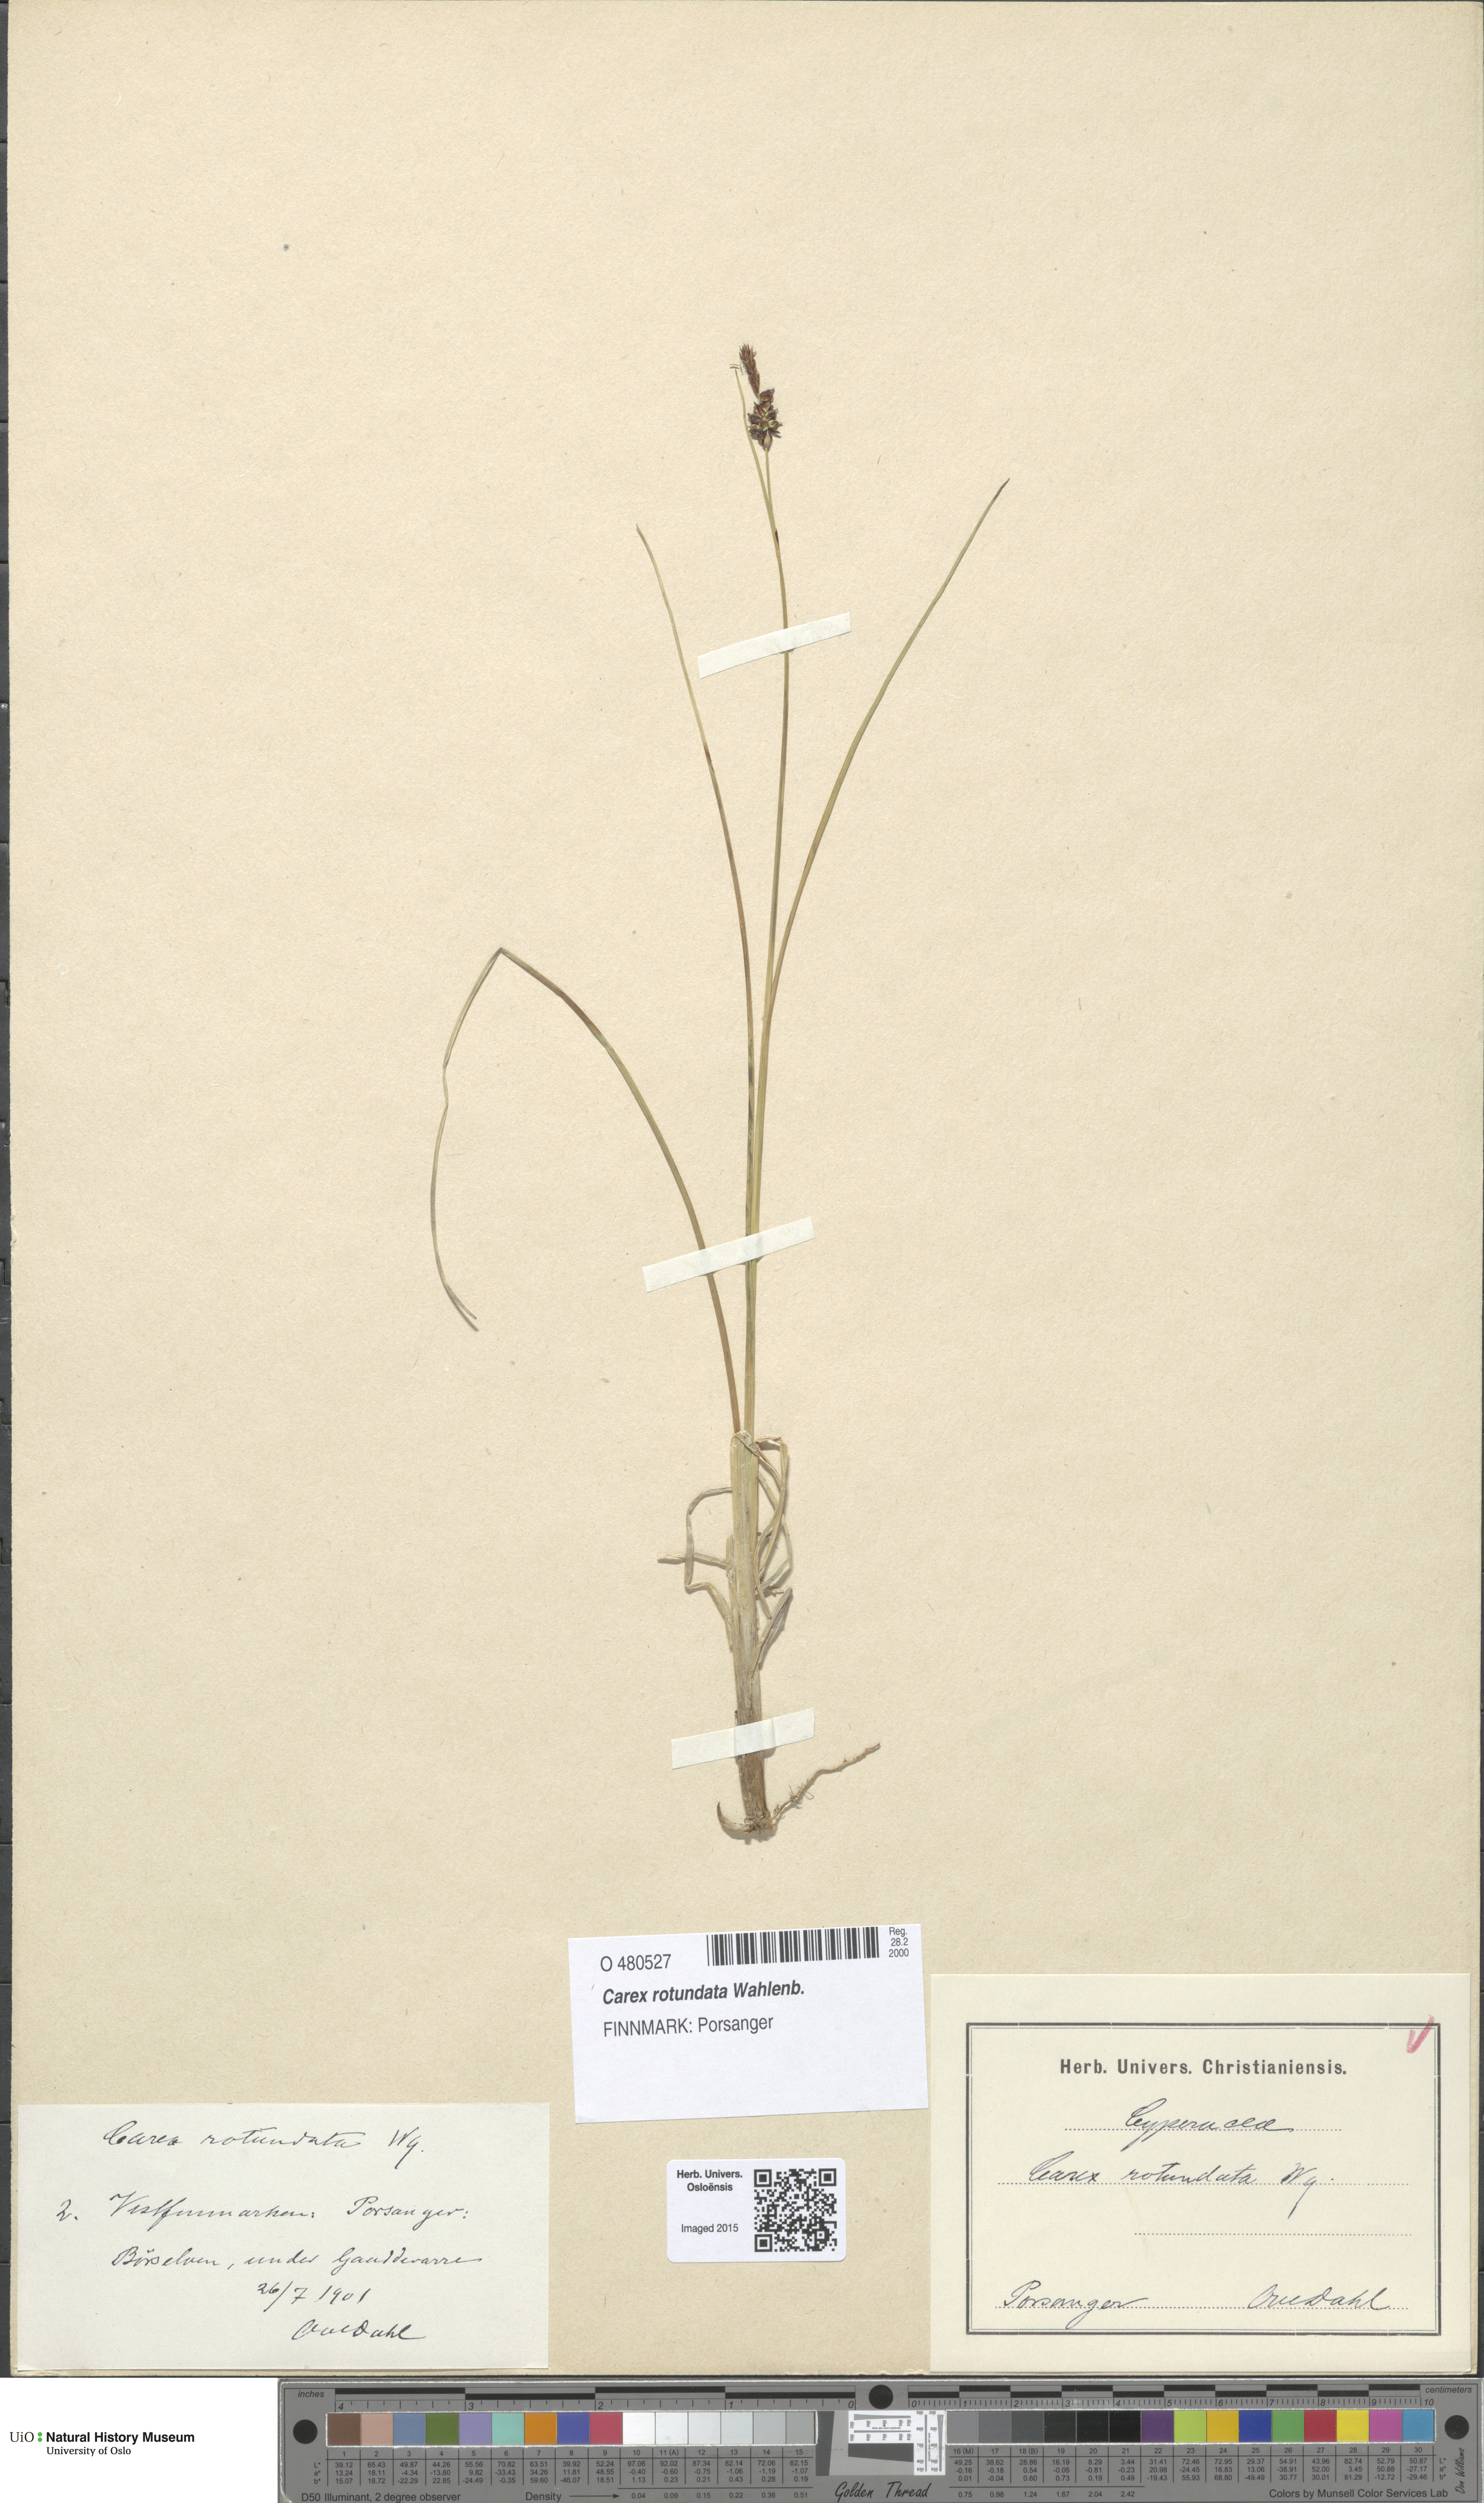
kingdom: Plantae
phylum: Tracheophyta
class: Liliopsida
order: Poales
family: Cyperaceae
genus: Carex
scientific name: Carex rotundata
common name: Round-fruited sedge
